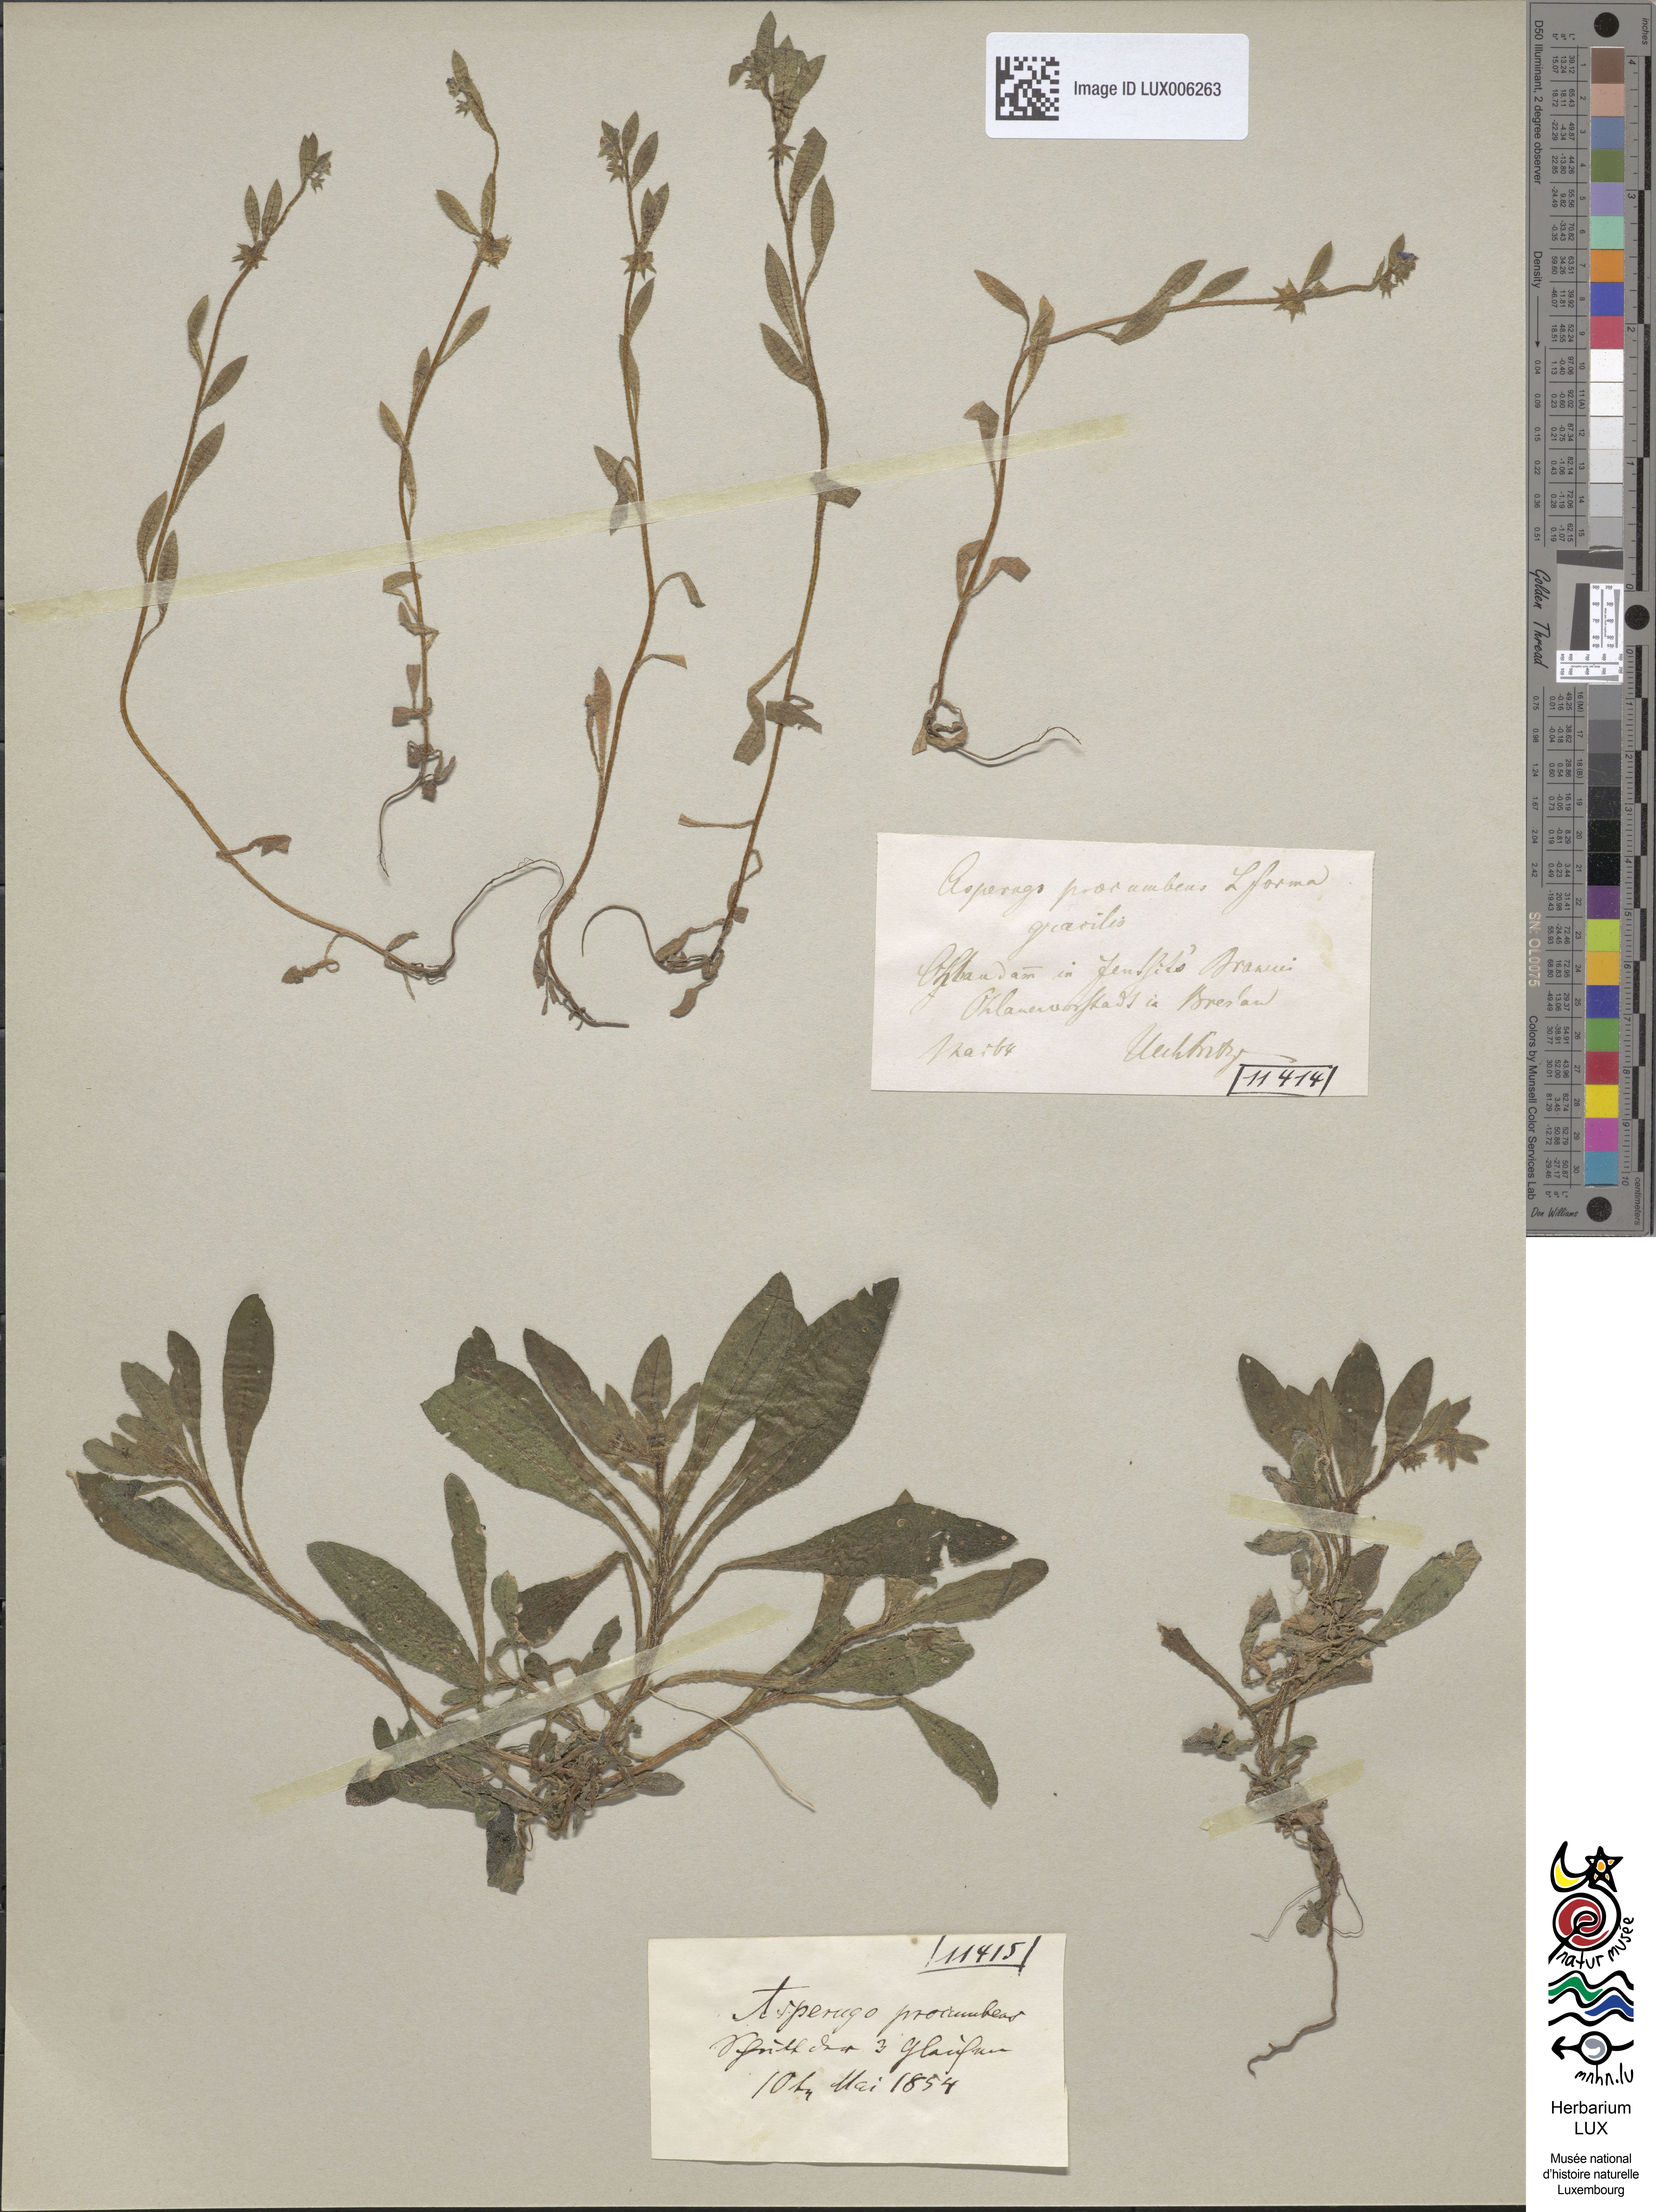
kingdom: Plantae
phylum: Tracheophyta
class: Magnoliopsida
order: Boraginales
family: Boraginaceae
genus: Asperugo
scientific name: Asperugo procumbens
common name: Madwort
